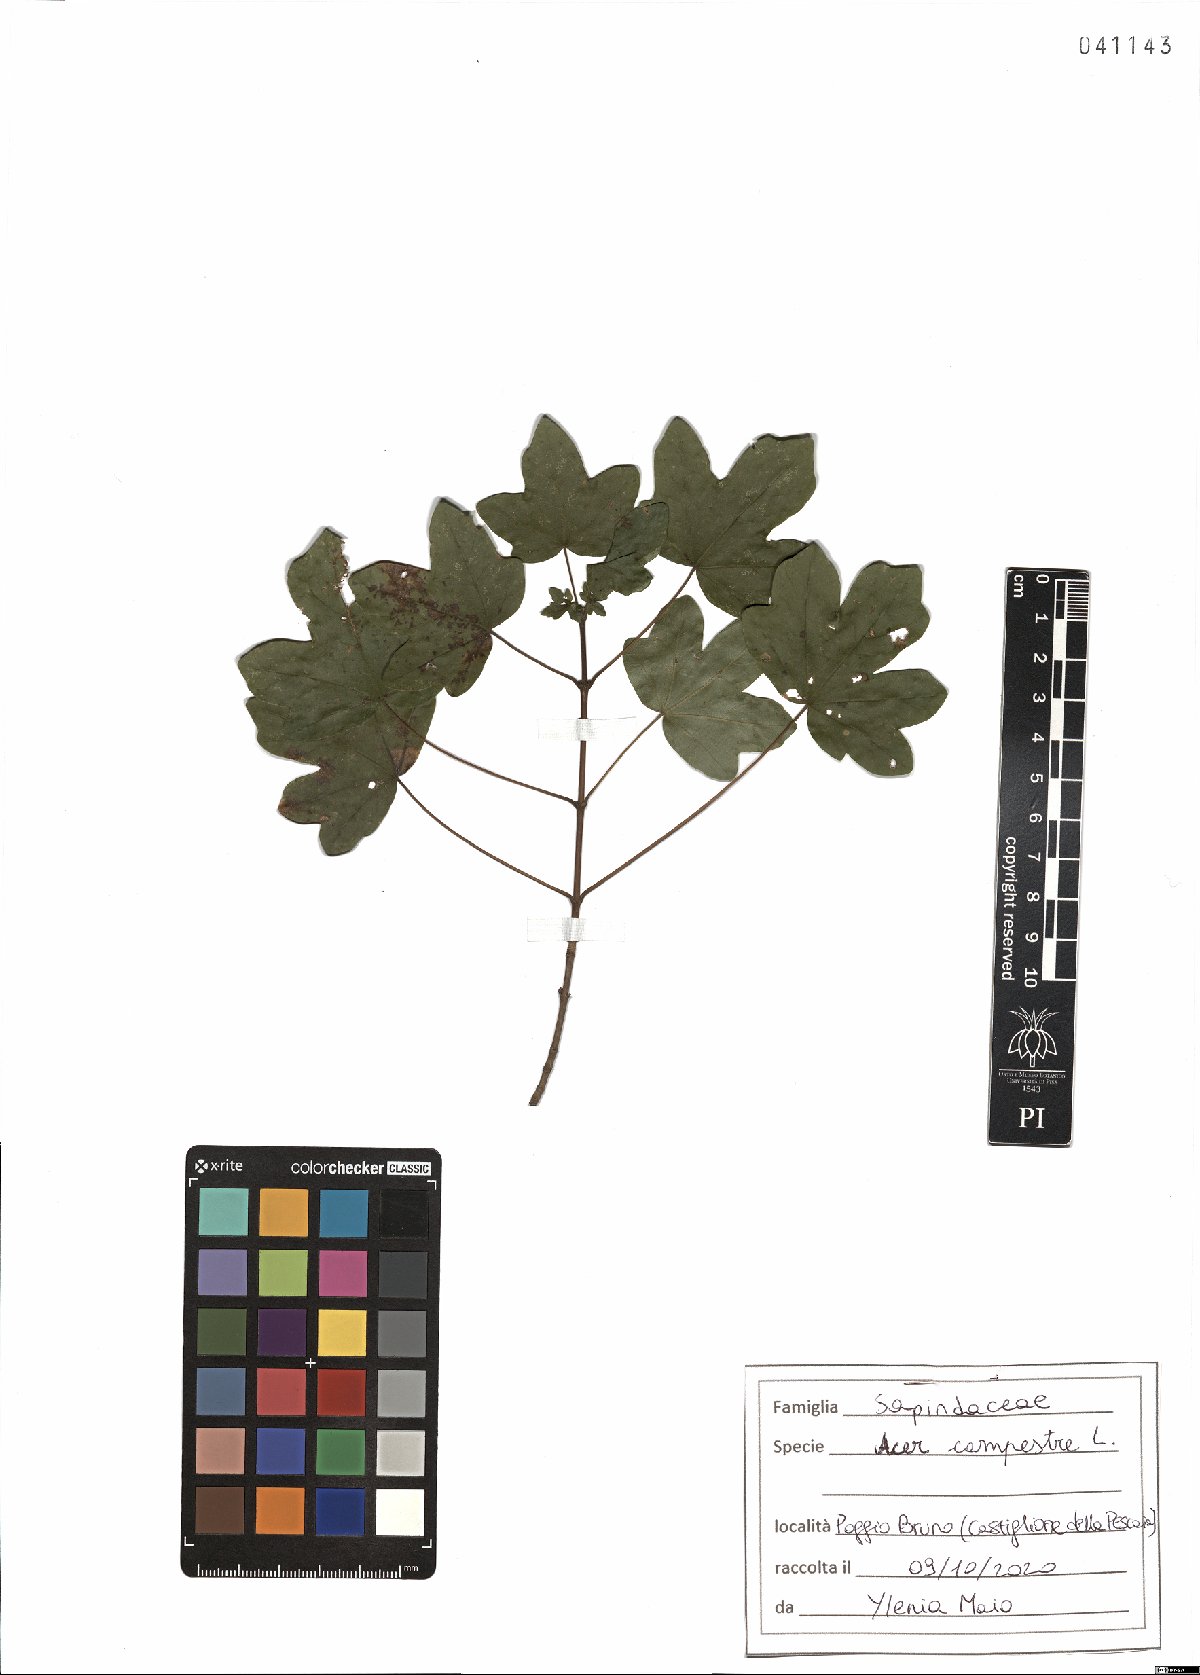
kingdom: Plantae
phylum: Tracheophyta
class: Magnoliopsida
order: Sapindales
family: Sapindaceae
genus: Acer
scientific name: Acer campestre
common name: Field maple
